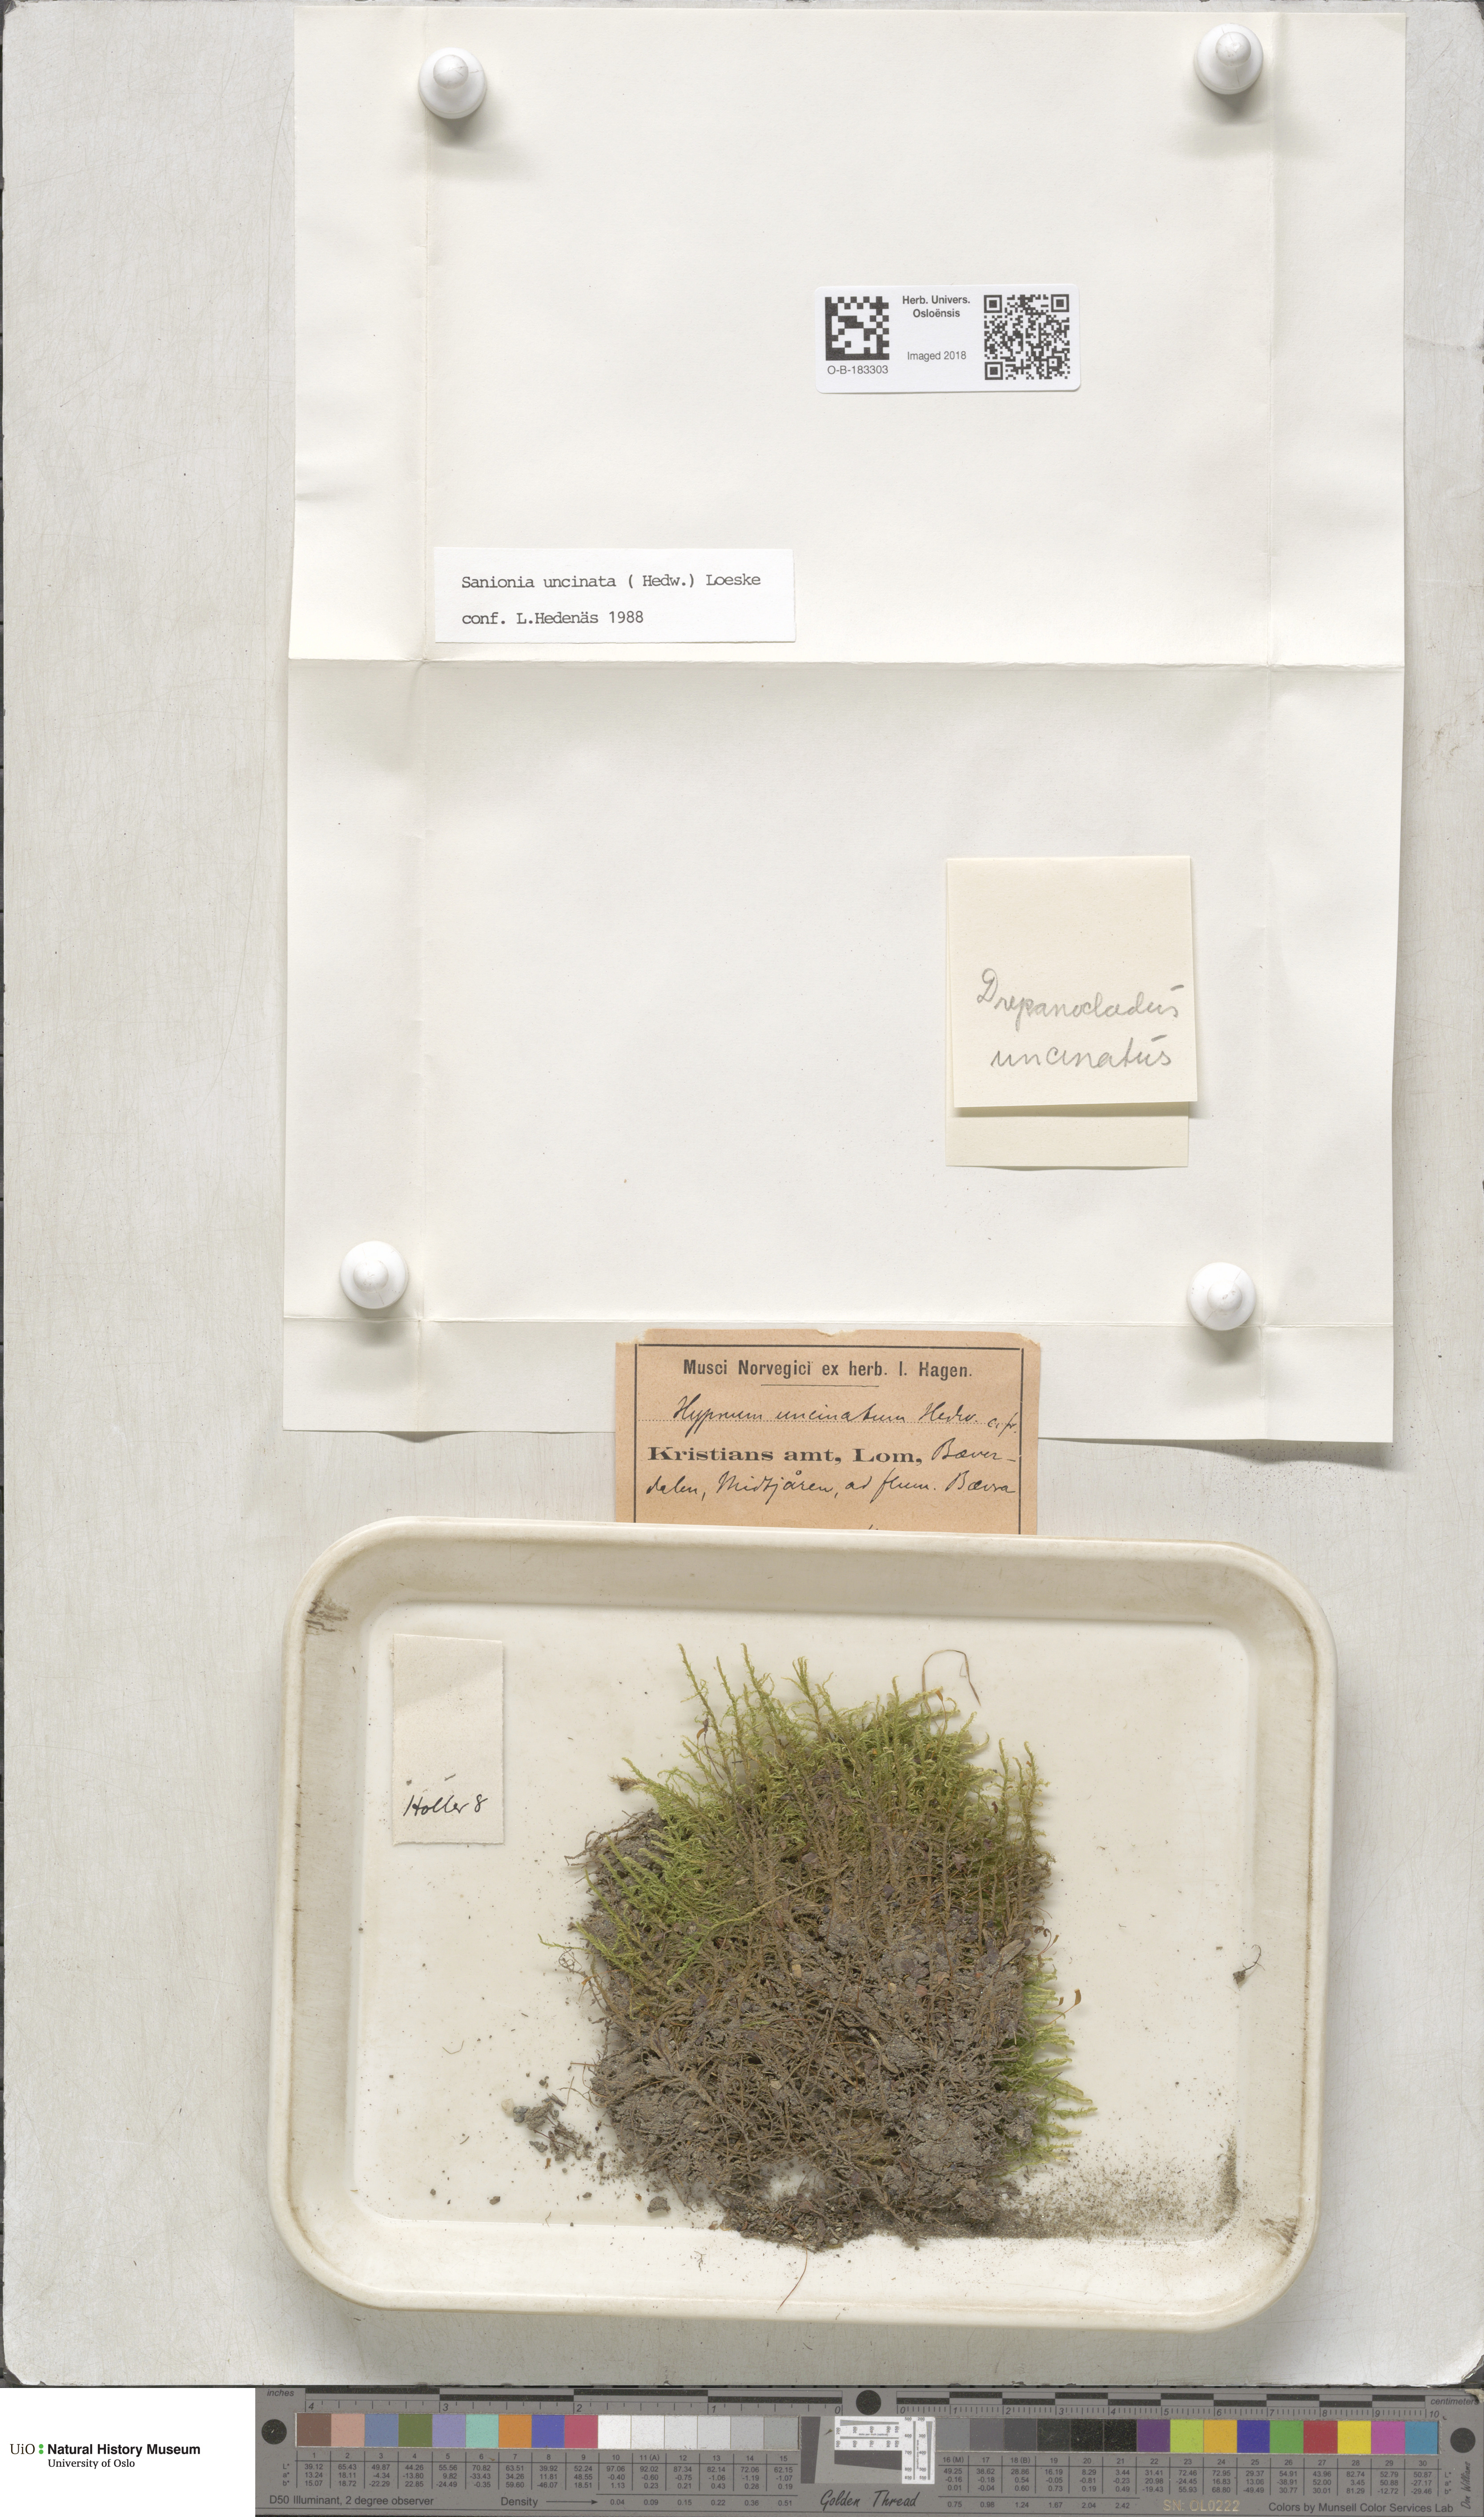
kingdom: Plantae
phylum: Bryophyta
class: Bryopsida
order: Hypnales
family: Scorpidiaceae
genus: Sanionia
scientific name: Sanionia uncinata
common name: Sickle moss
